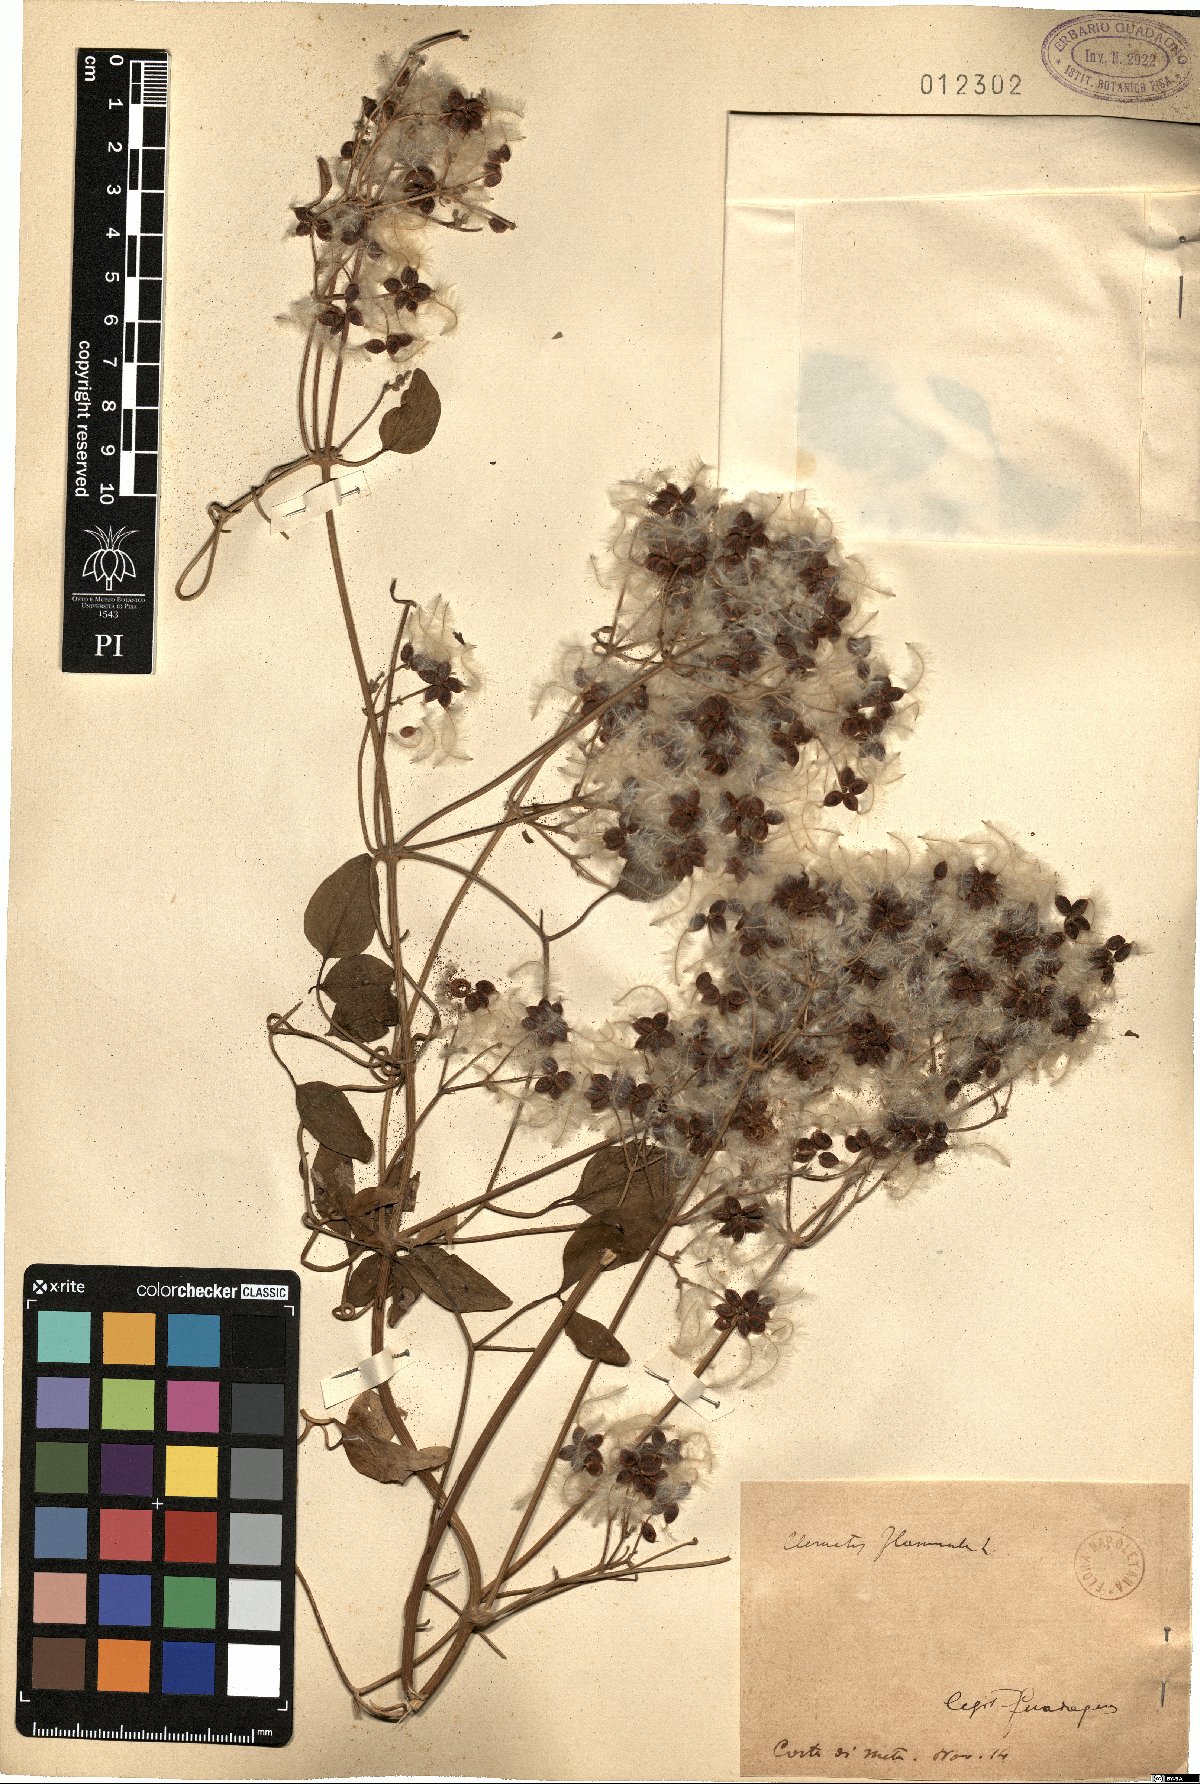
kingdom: Plantae
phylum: Tracheophyta
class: Magnoliopsida
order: Ranunculales
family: Ranunculaceae
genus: Clematis
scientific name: Clematis flammula
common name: Virgin's-bower
